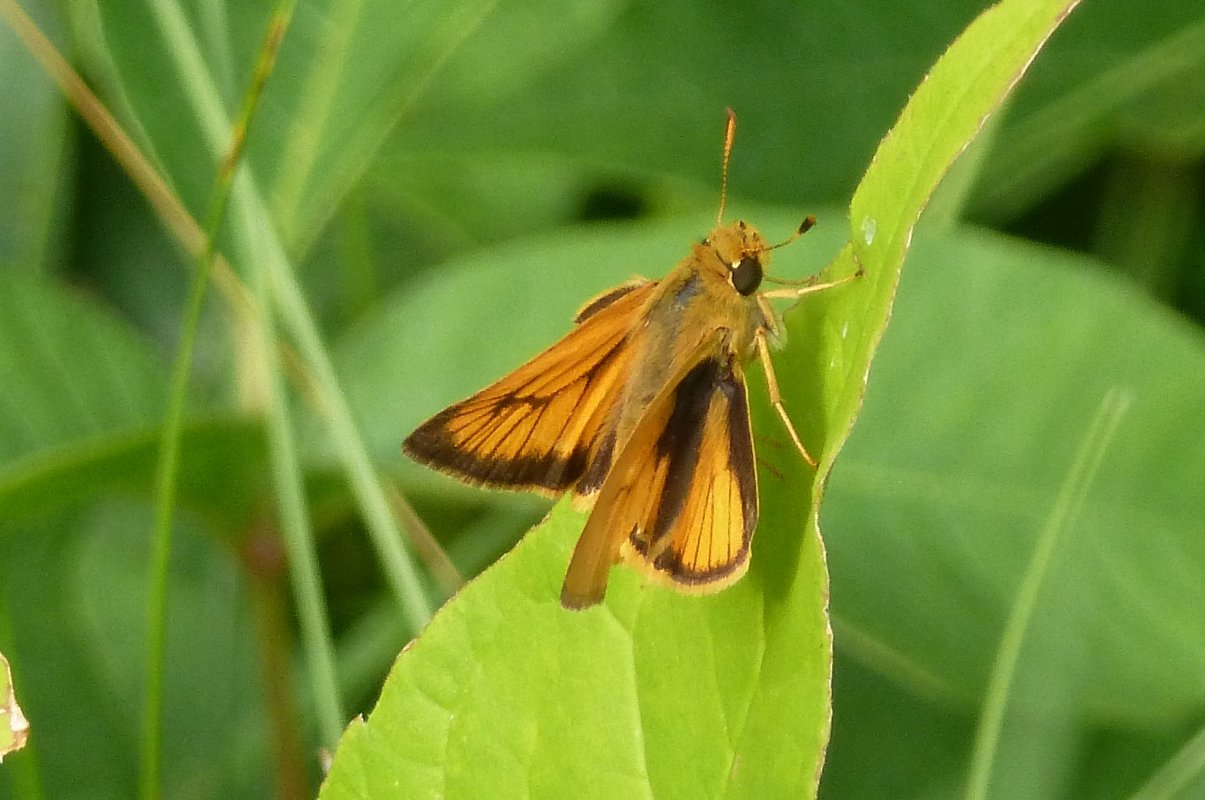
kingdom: Animalia
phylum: Arthropoda
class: Insecta
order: Lepidoptera
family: Hesperiidae
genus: Atrytone
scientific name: Atrytone delaware
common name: Delaware Skipper
